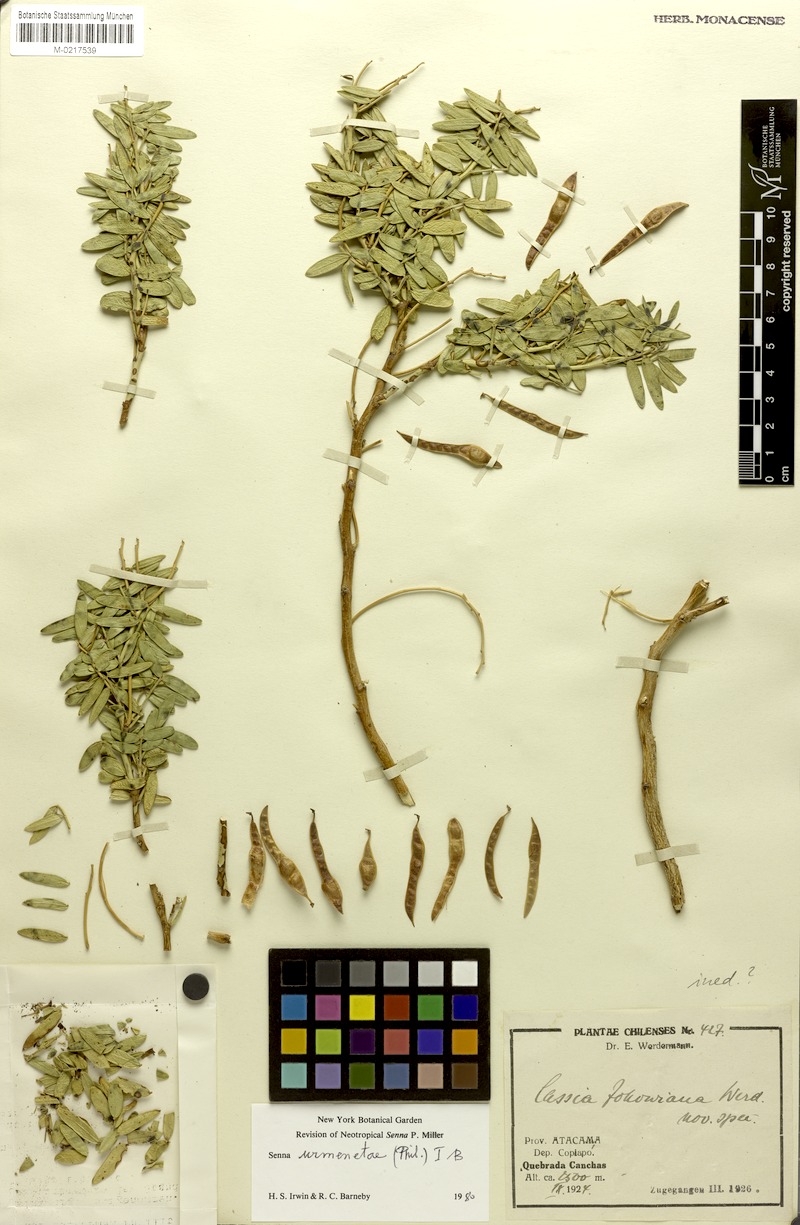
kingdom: Plantae
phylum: Tracheophyta
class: Magnoliopsida
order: Fabales
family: Fabaceae
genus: Senna
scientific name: Senna urmenetae
